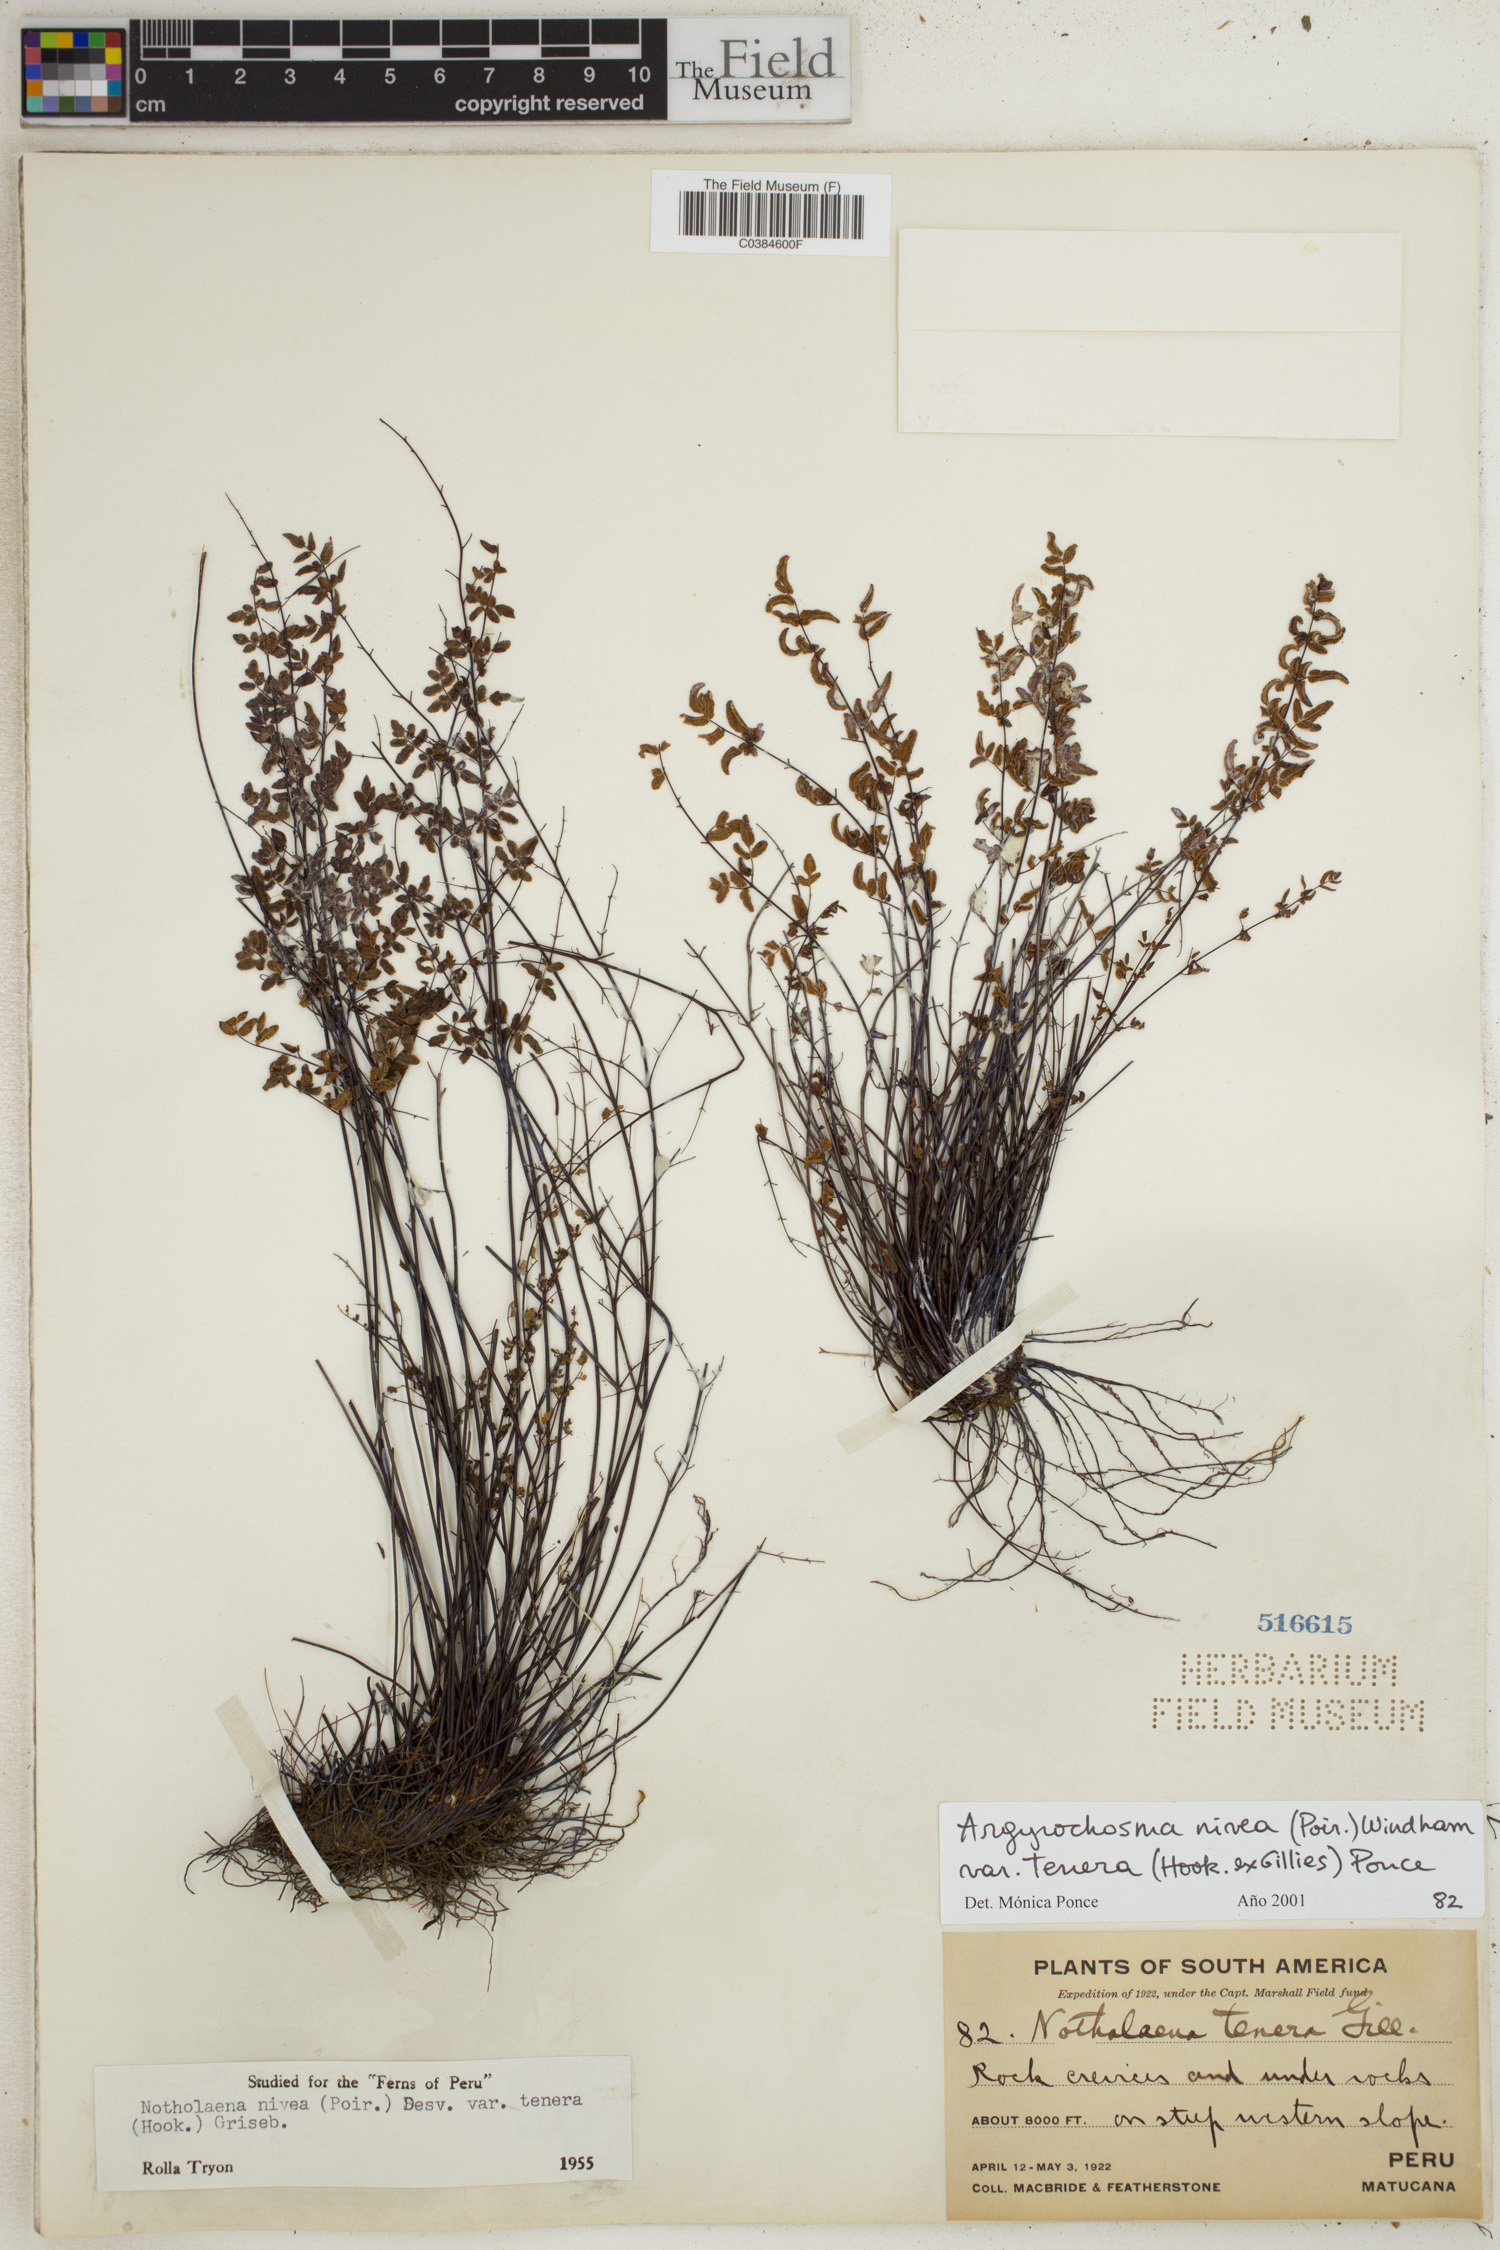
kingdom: Plantae
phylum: Tracheophyta
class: Polypodiopsida
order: Polypodiales
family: Pteridaceae
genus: Argyrochosma
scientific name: Argyrochosma nivea
